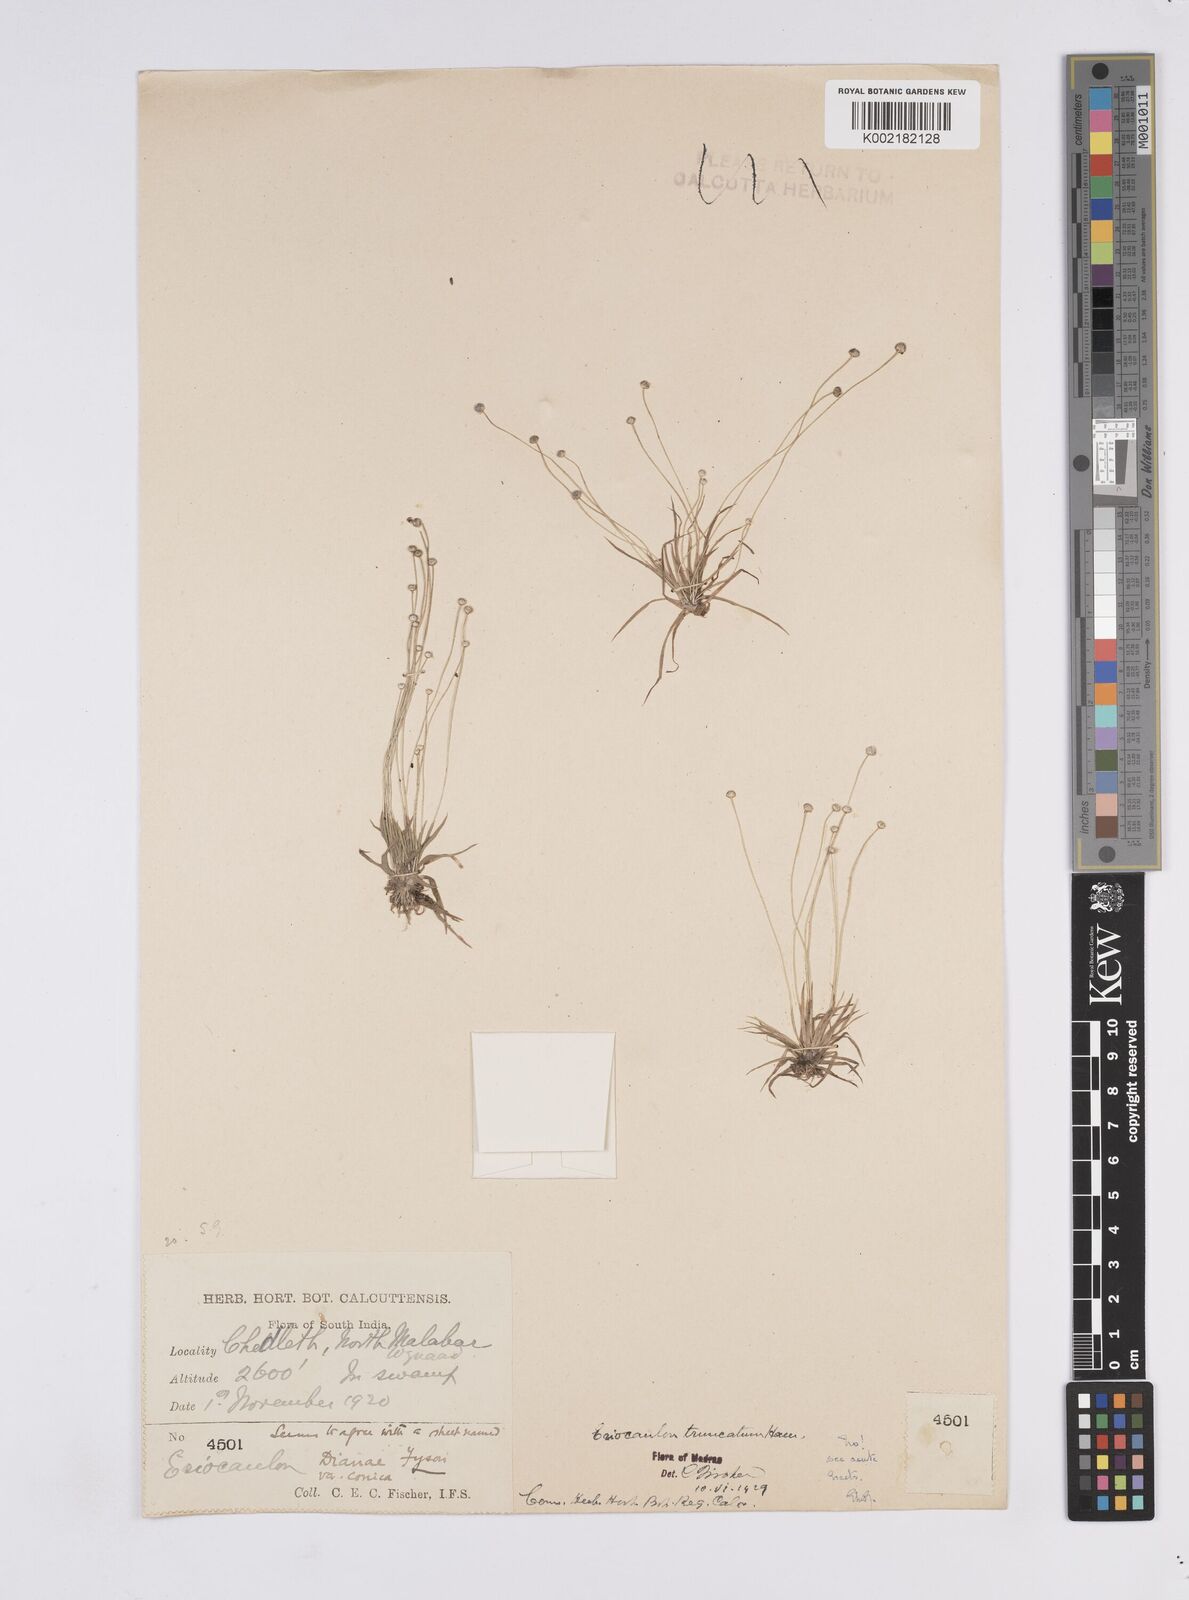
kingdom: Plantae
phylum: Tracheophyta
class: Liliopsida
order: Poales
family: Eriocaulaceae
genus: Eriocaulon
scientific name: Eriocaulon
